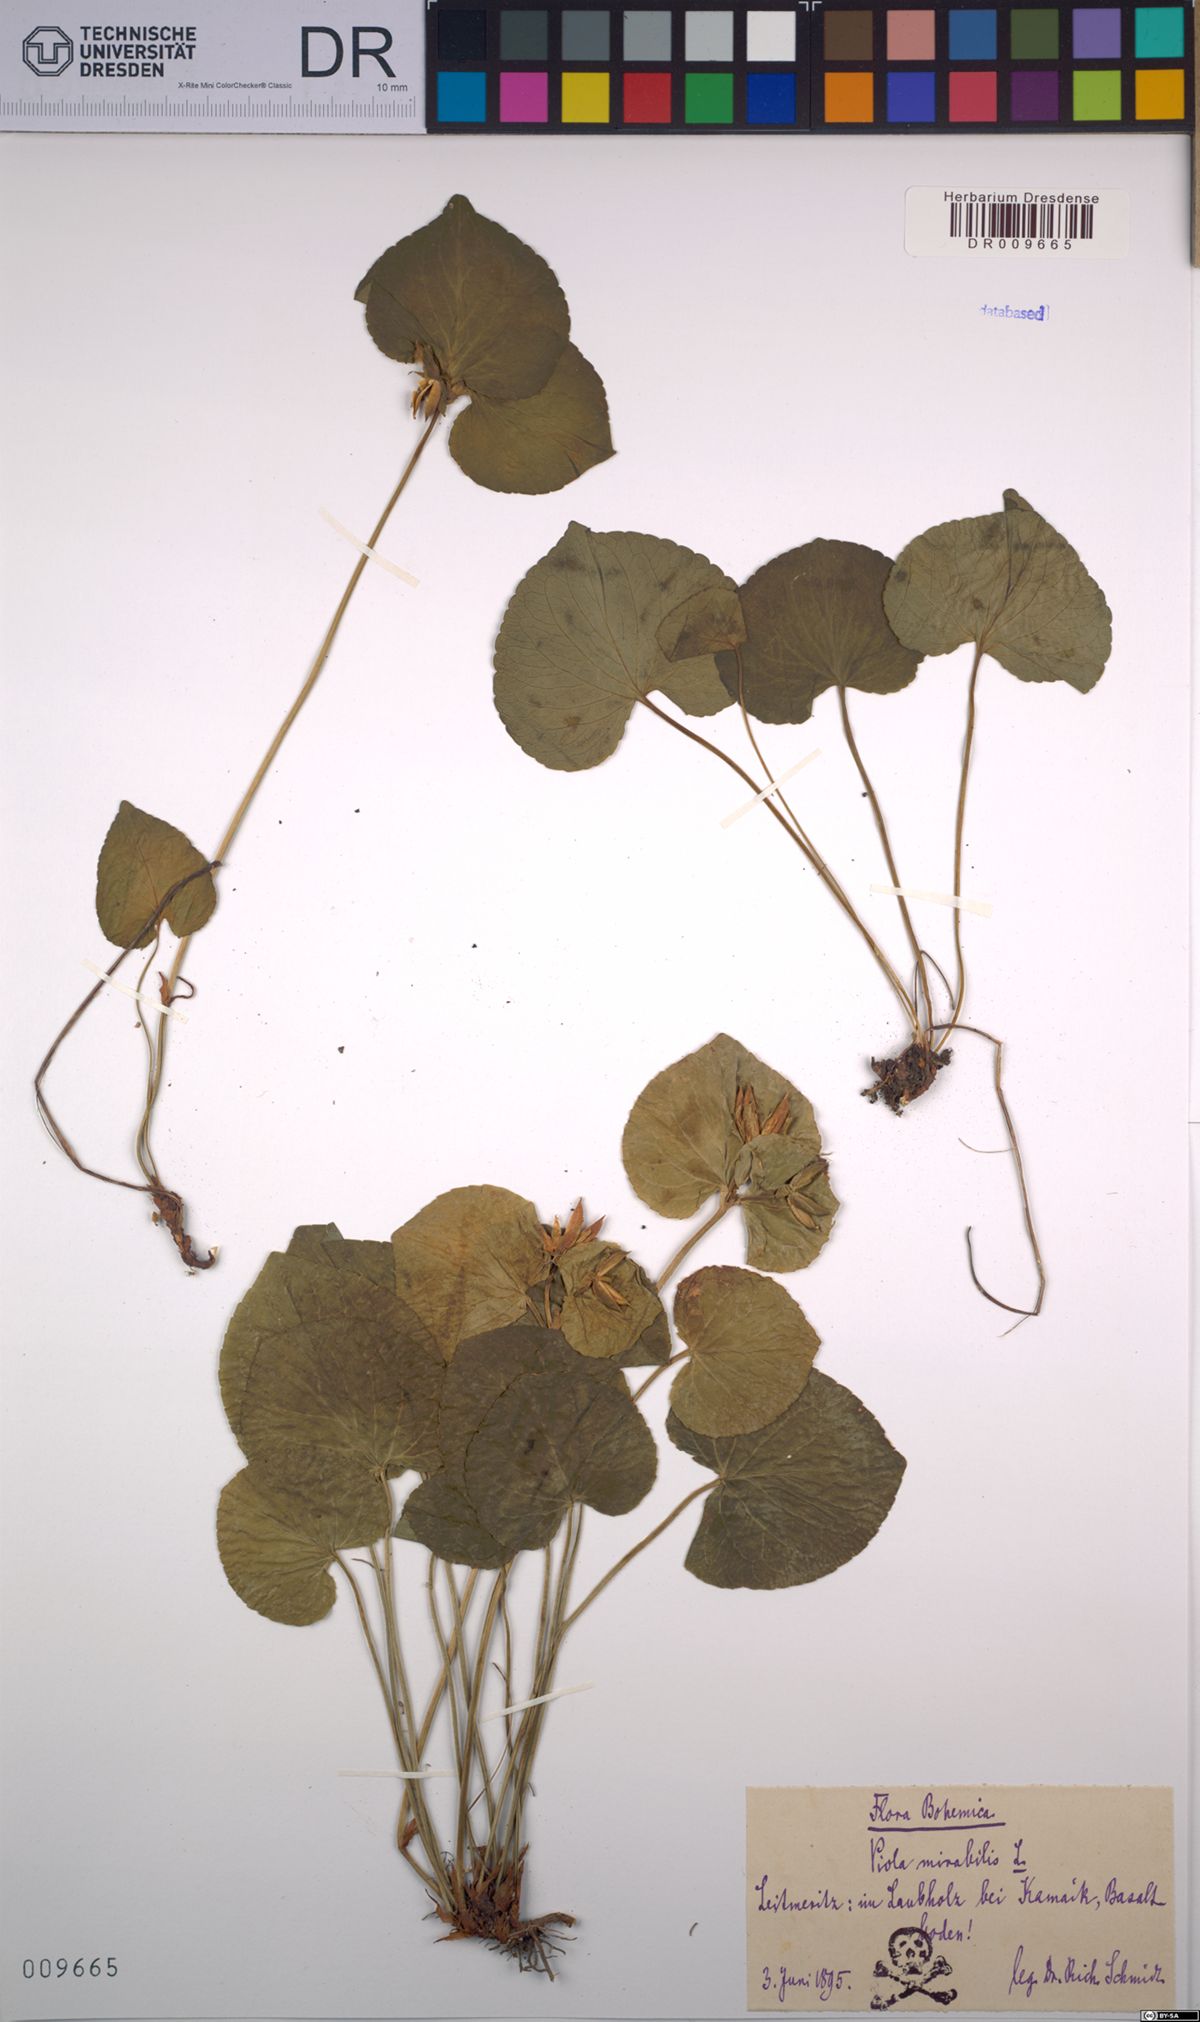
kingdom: Plantae
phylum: Tracheophyta
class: Magnoliopsida
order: Malpighiales
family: Violaceae
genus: Viola
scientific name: Viola mirabilis
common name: Wonder violet
